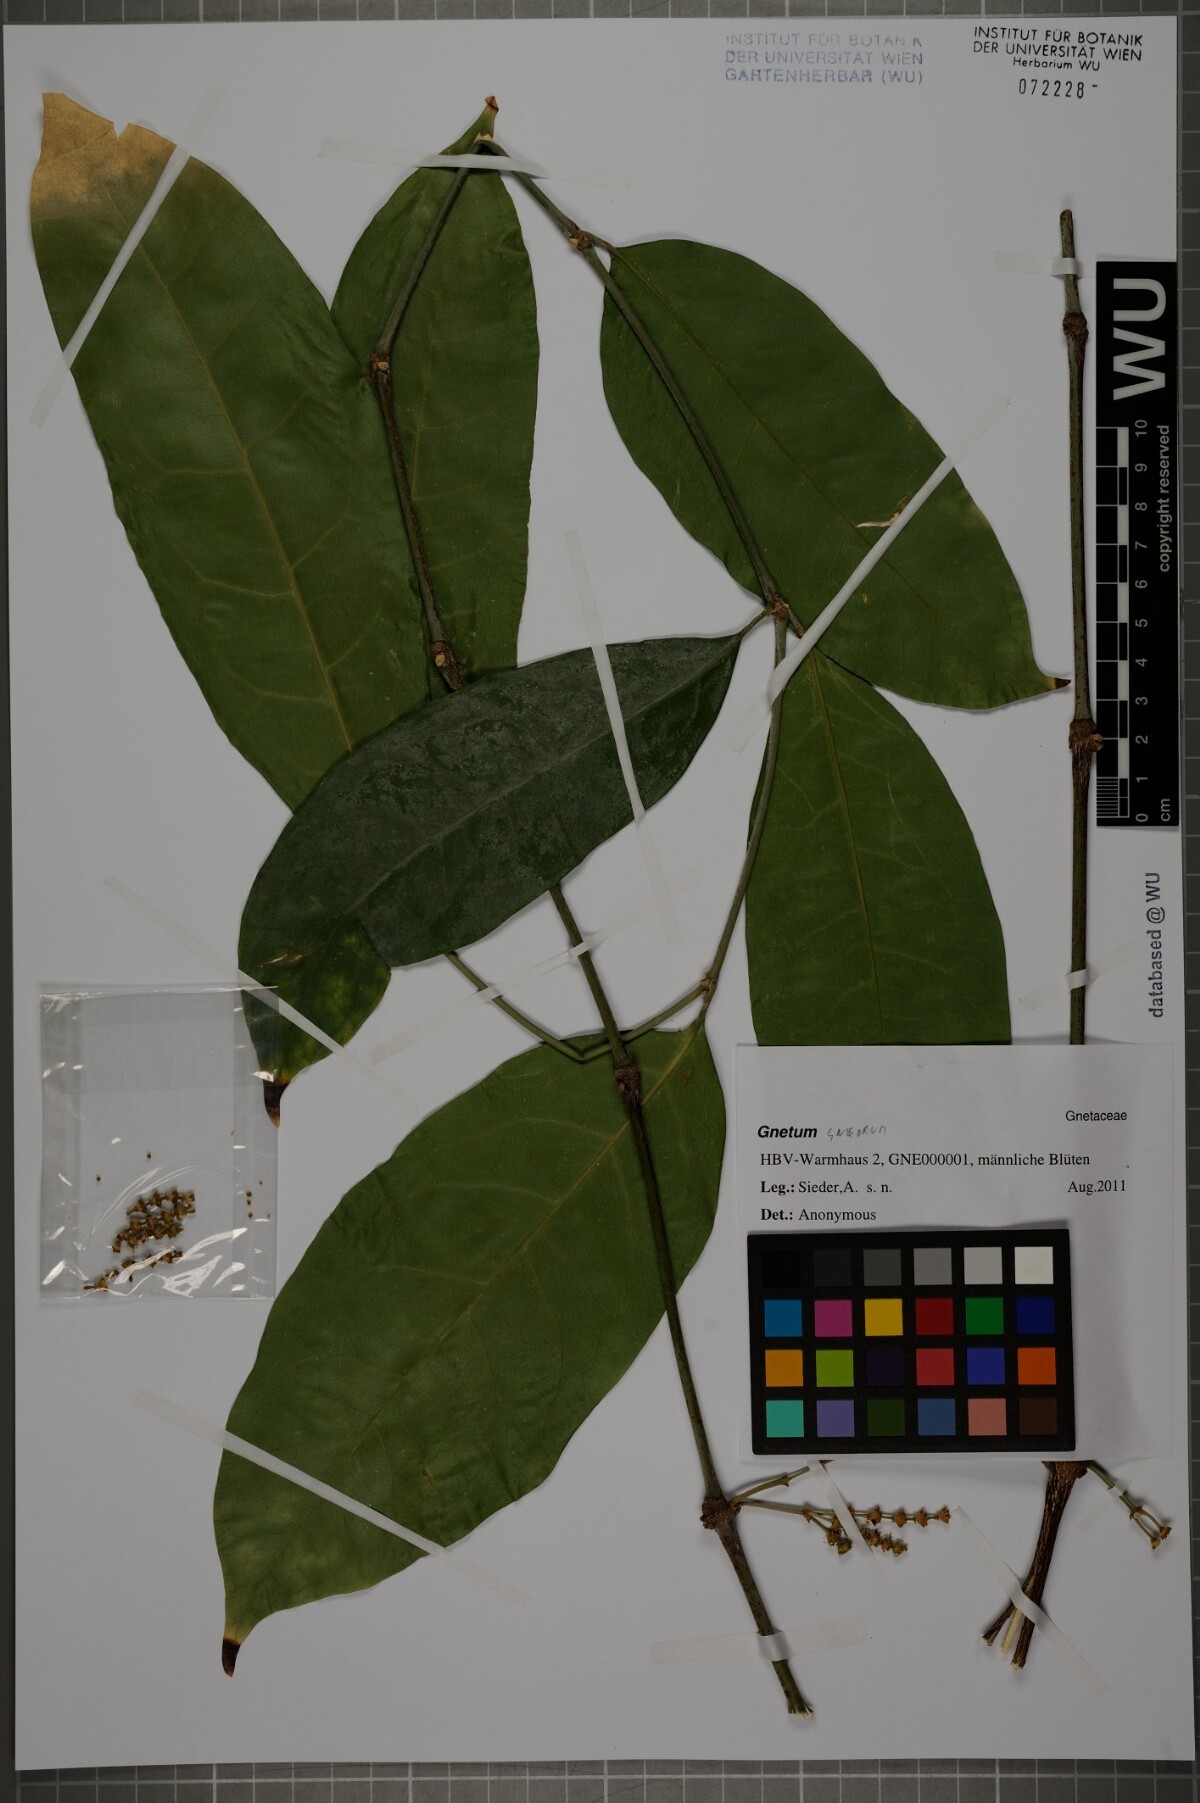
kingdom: Plantae
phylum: Tracheophyta
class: Gnetopsida
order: Gnetales
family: Gnetaceae
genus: Gnetum
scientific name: Gnetum gnemon
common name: Spanish joint-fir
